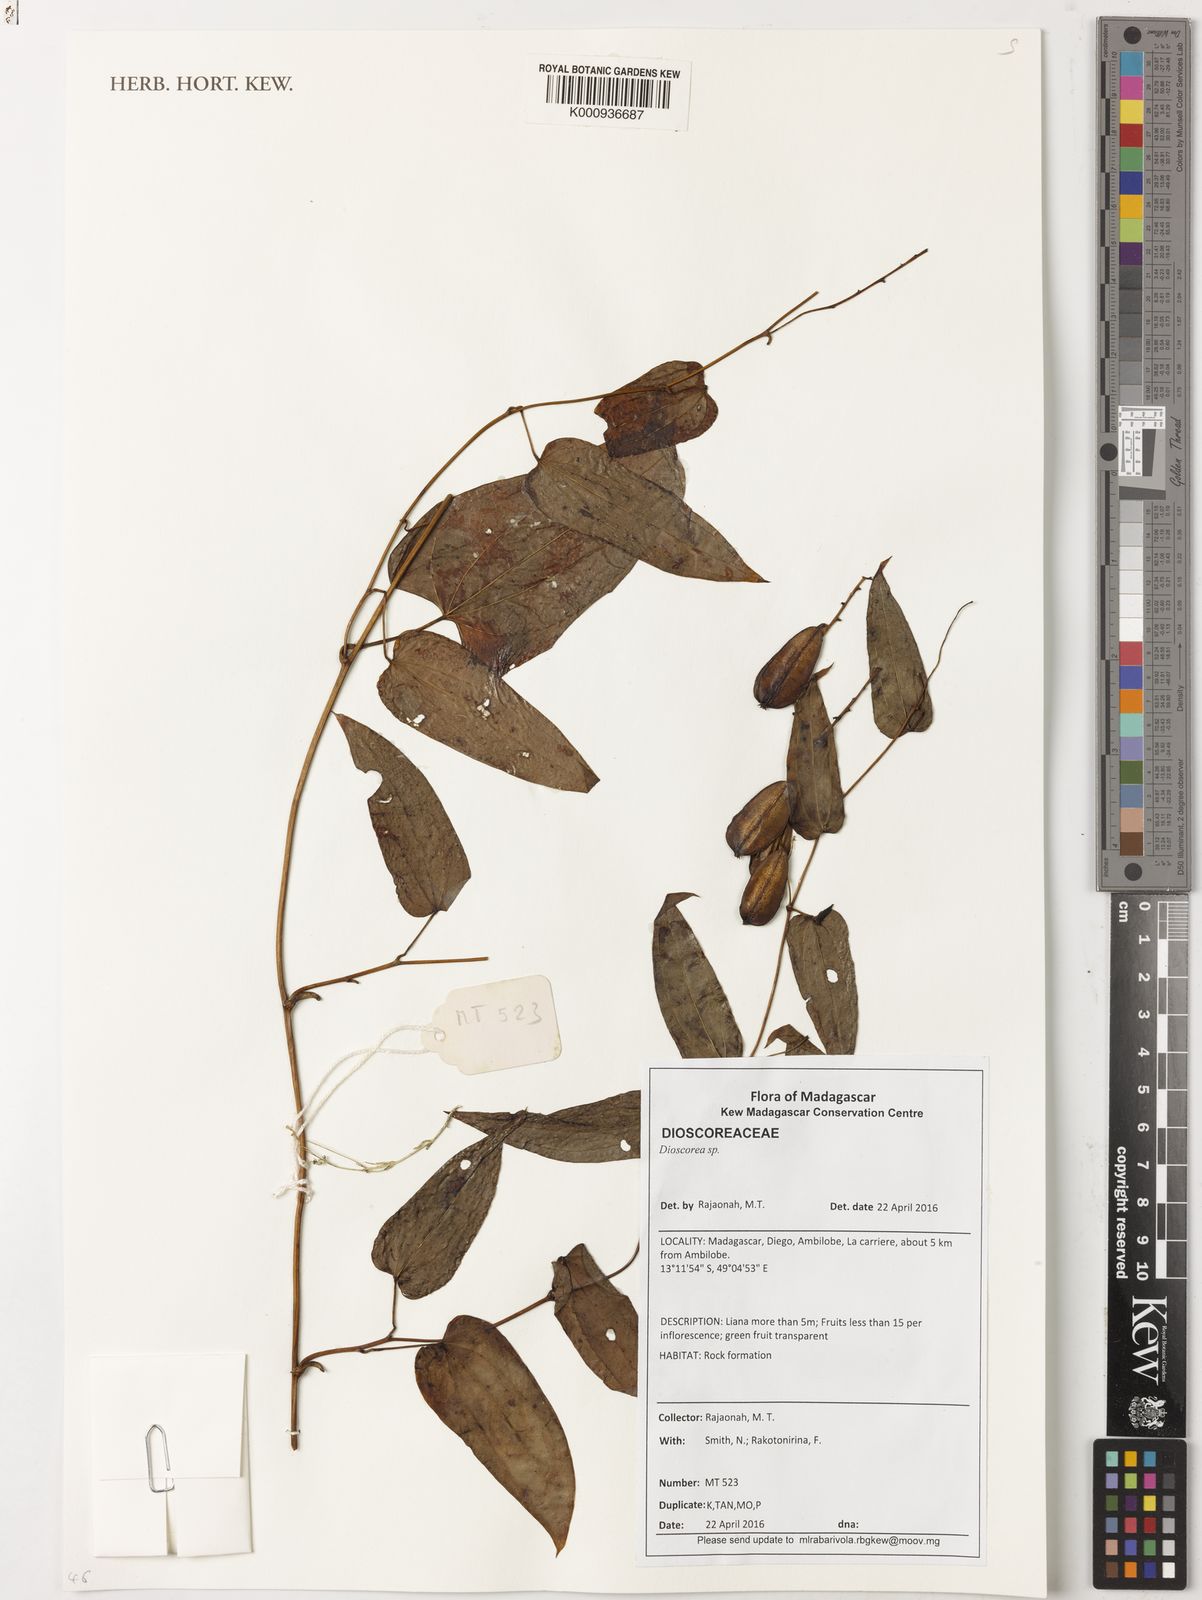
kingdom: Plantae
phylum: Tracheophyta
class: Liliopsida
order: Dioscoreales
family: Dioscoreaceae
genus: Dioscorea
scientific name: Dioscorea
